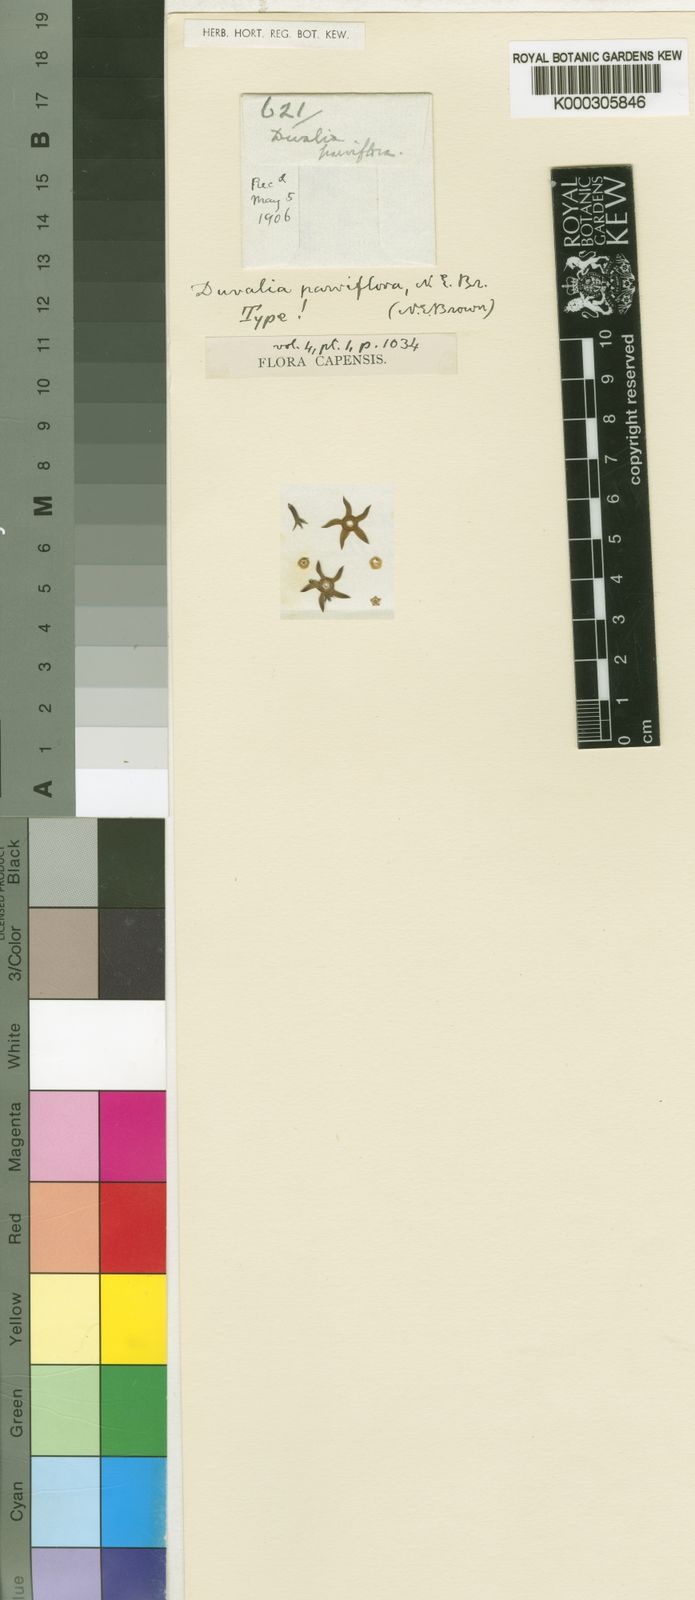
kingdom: Plantae
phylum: Tracheophyta
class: Magnoliopsida
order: Gentianales
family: Apocynaceae
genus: Ceropegia
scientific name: Ceropegia parvianthera
